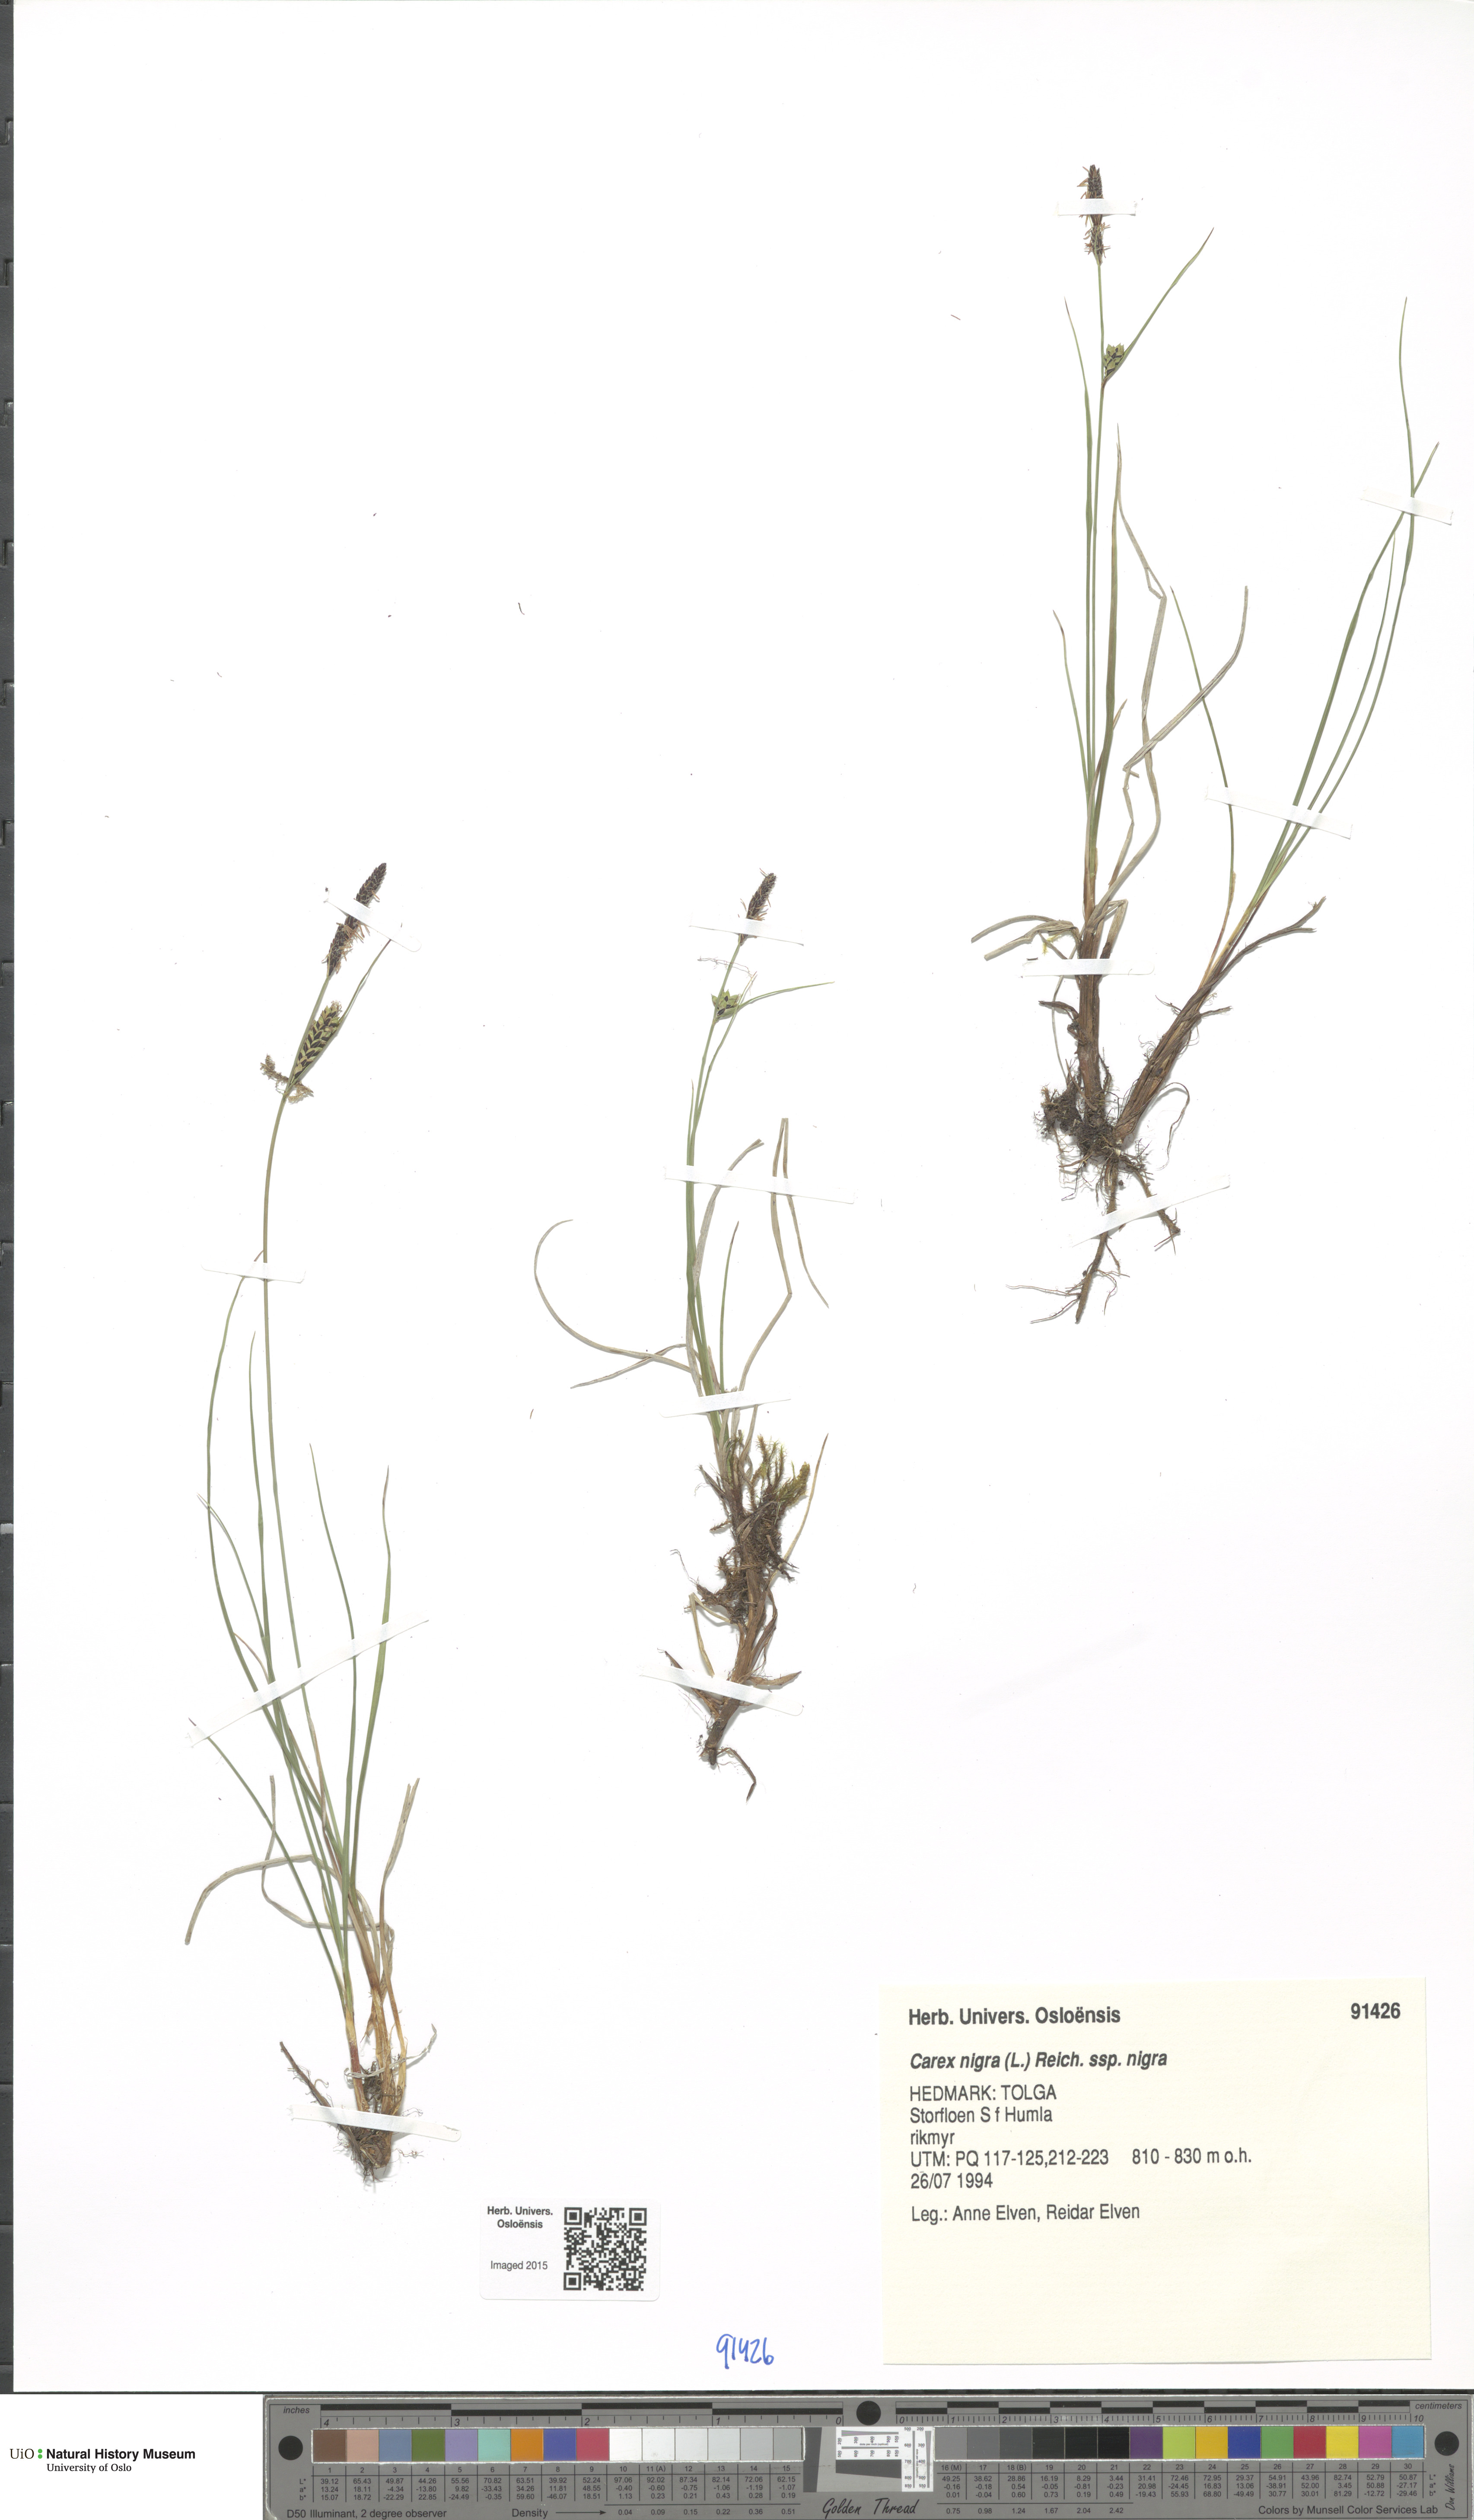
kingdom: Plantae
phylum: Tracheophyta
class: Liliopsida
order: Poales
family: Cyperaceae
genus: Carex
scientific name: Carex nigra
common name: Common sedge
